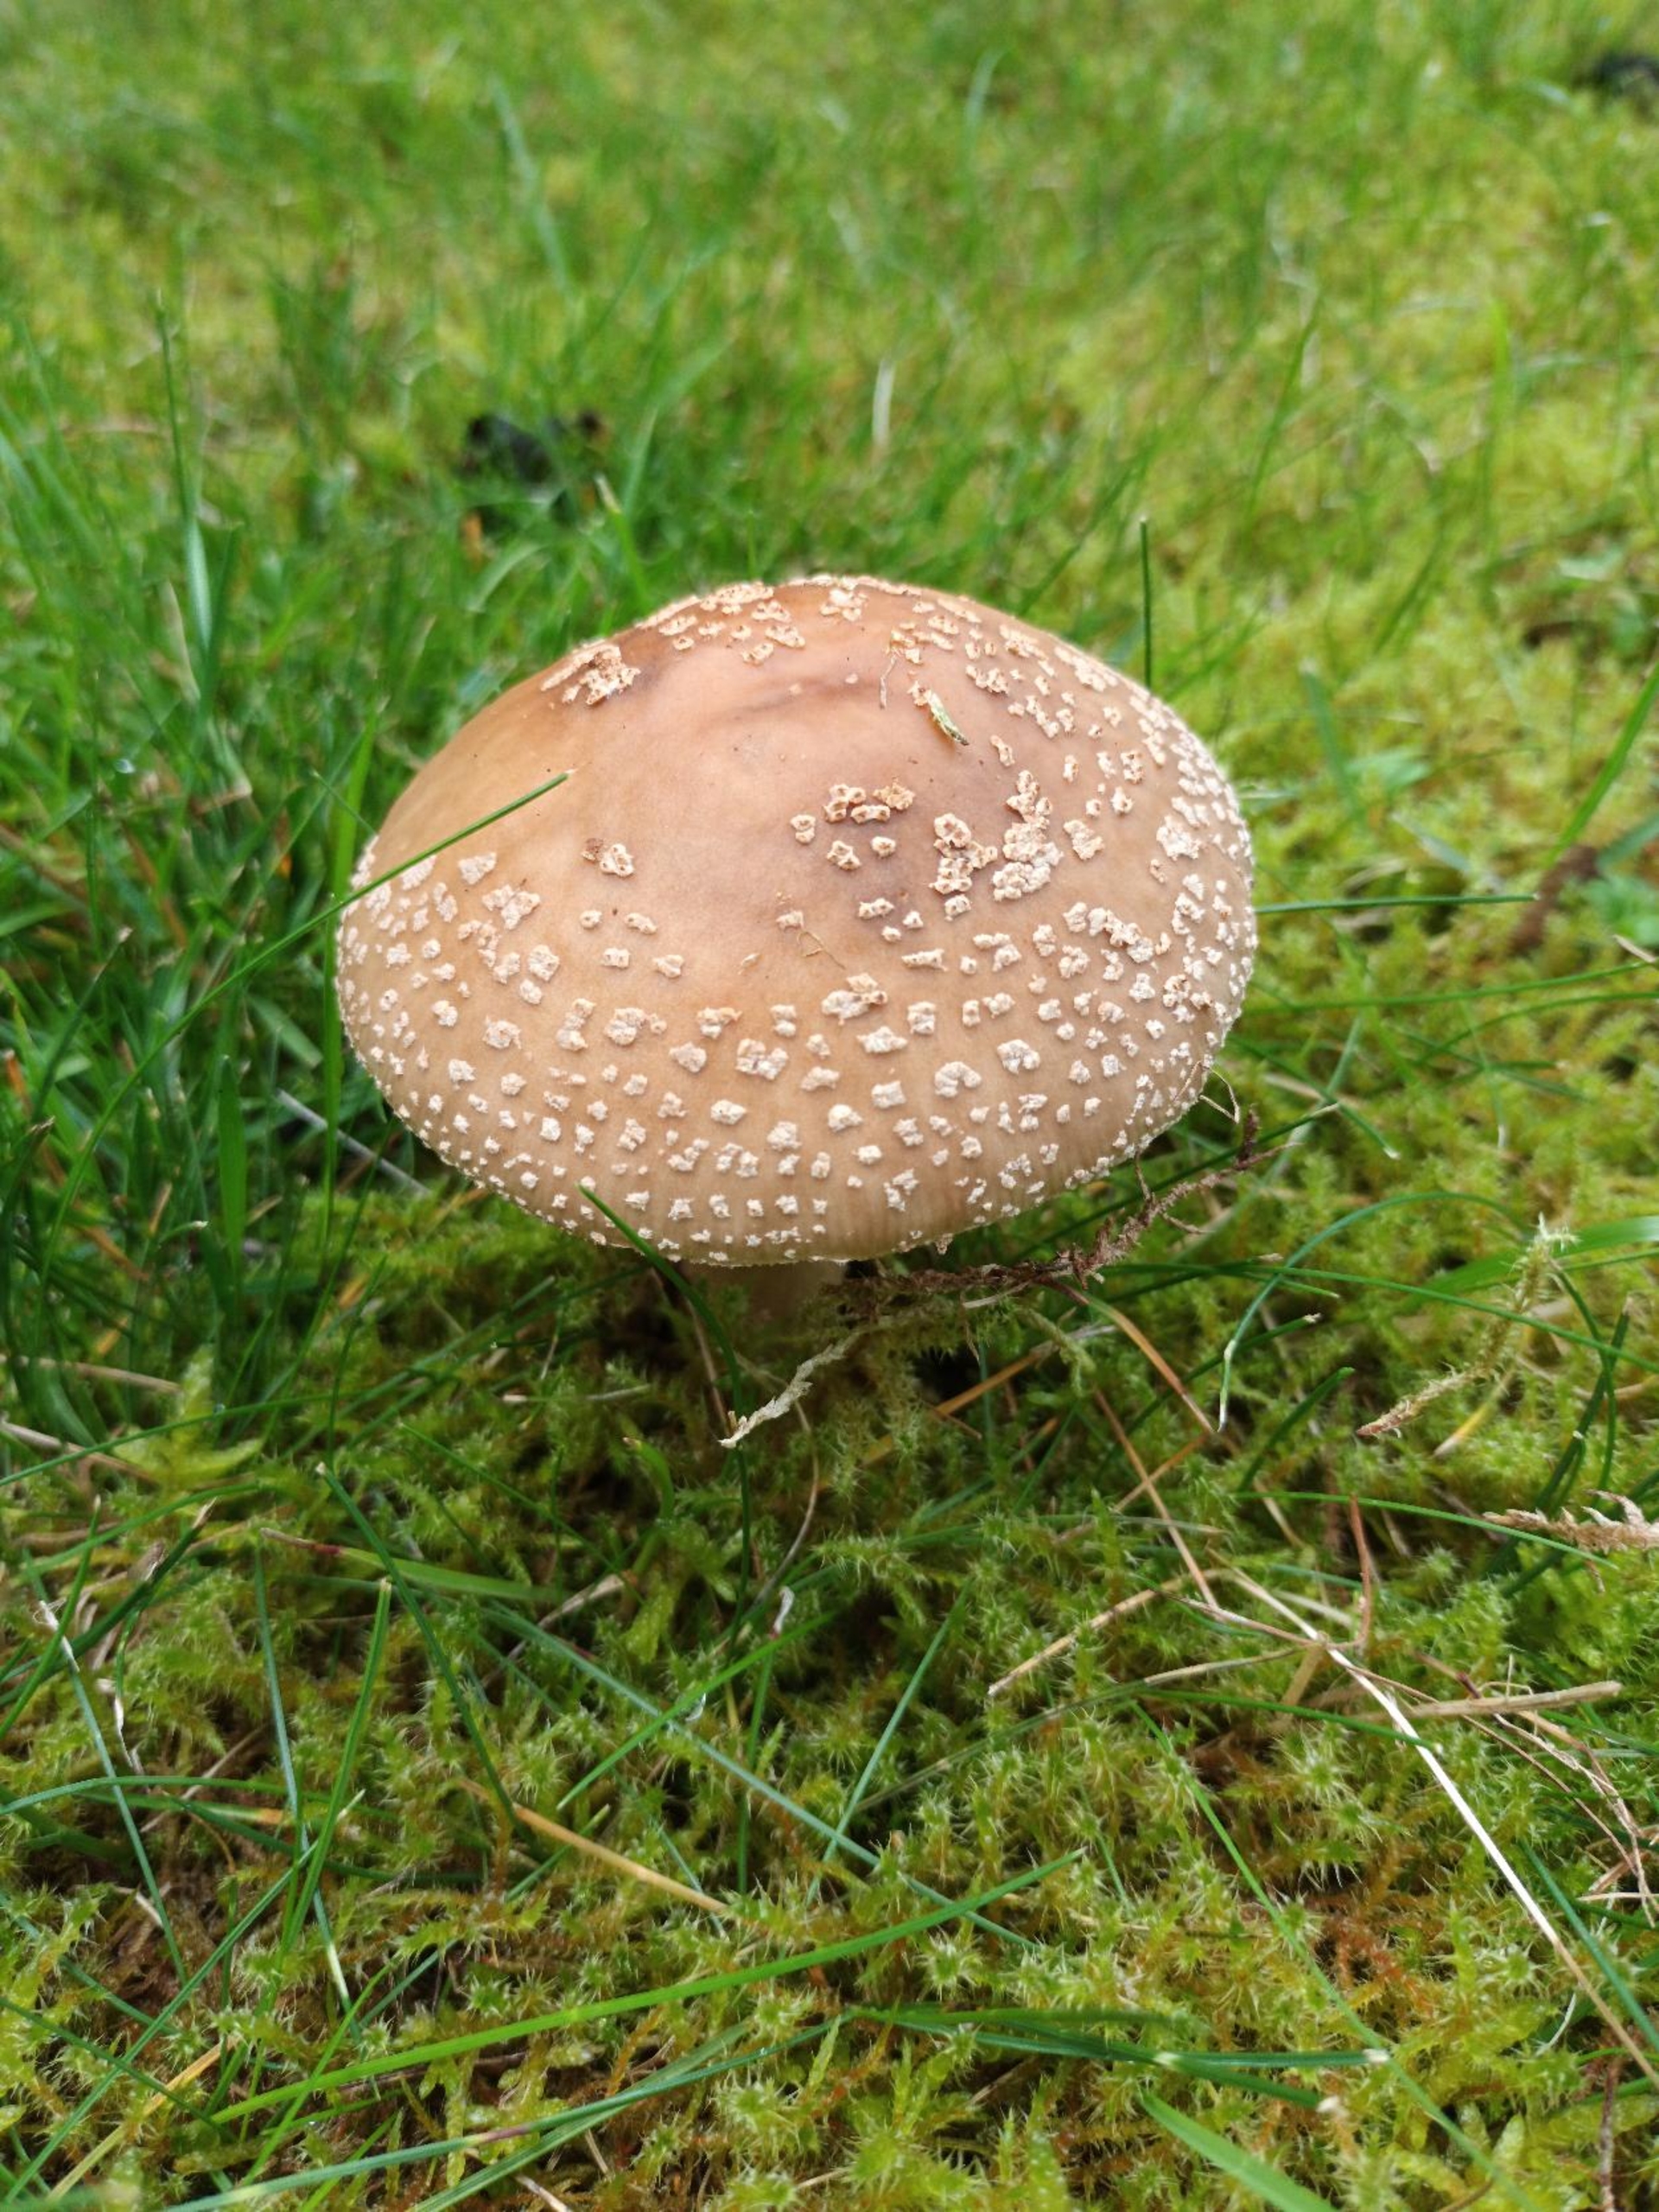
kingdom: Fungi
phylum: Basidiomycota
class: Agaricomycetes
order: Agaricales
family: Amanitaceae
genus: Amanita
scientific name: Amanita
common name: Fluesvamp
